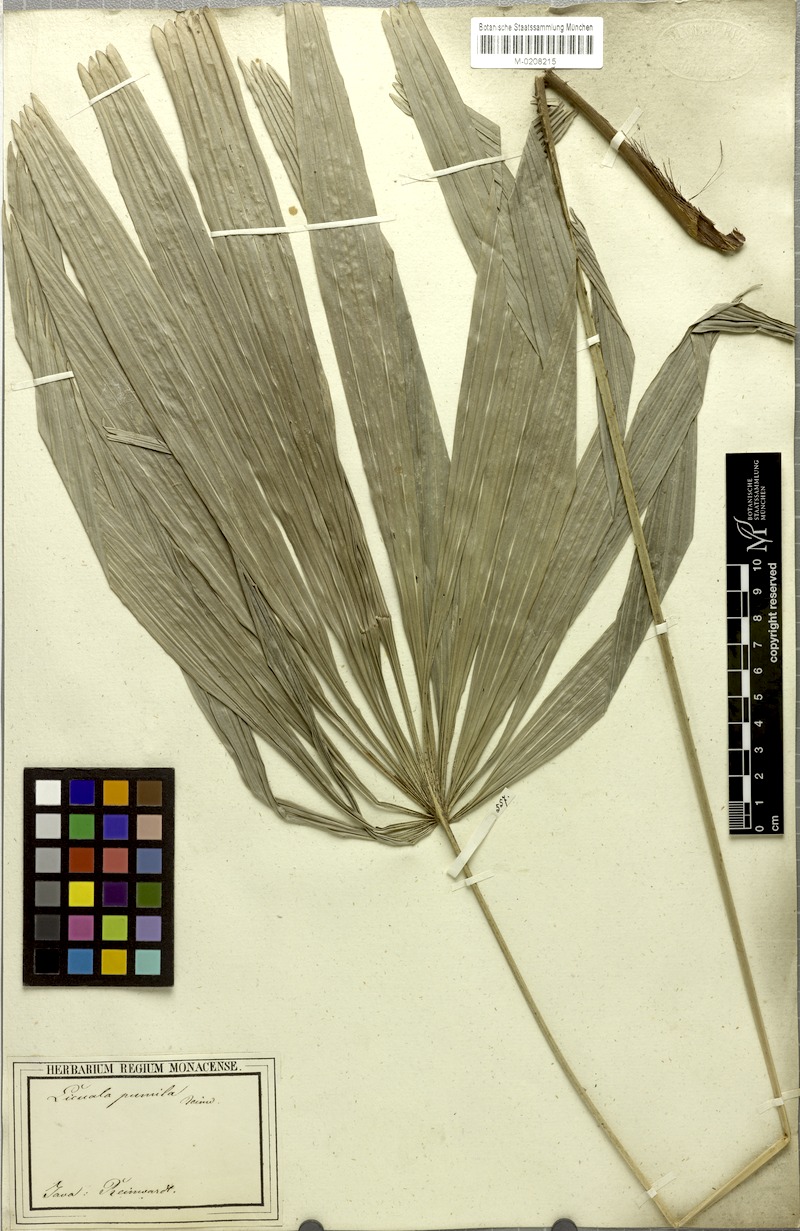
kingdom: Plantae
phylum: Tracheophyta
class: Liliopsida
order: Arecales
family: Arecaceae
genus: Licuala
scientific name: Licuala pumila
